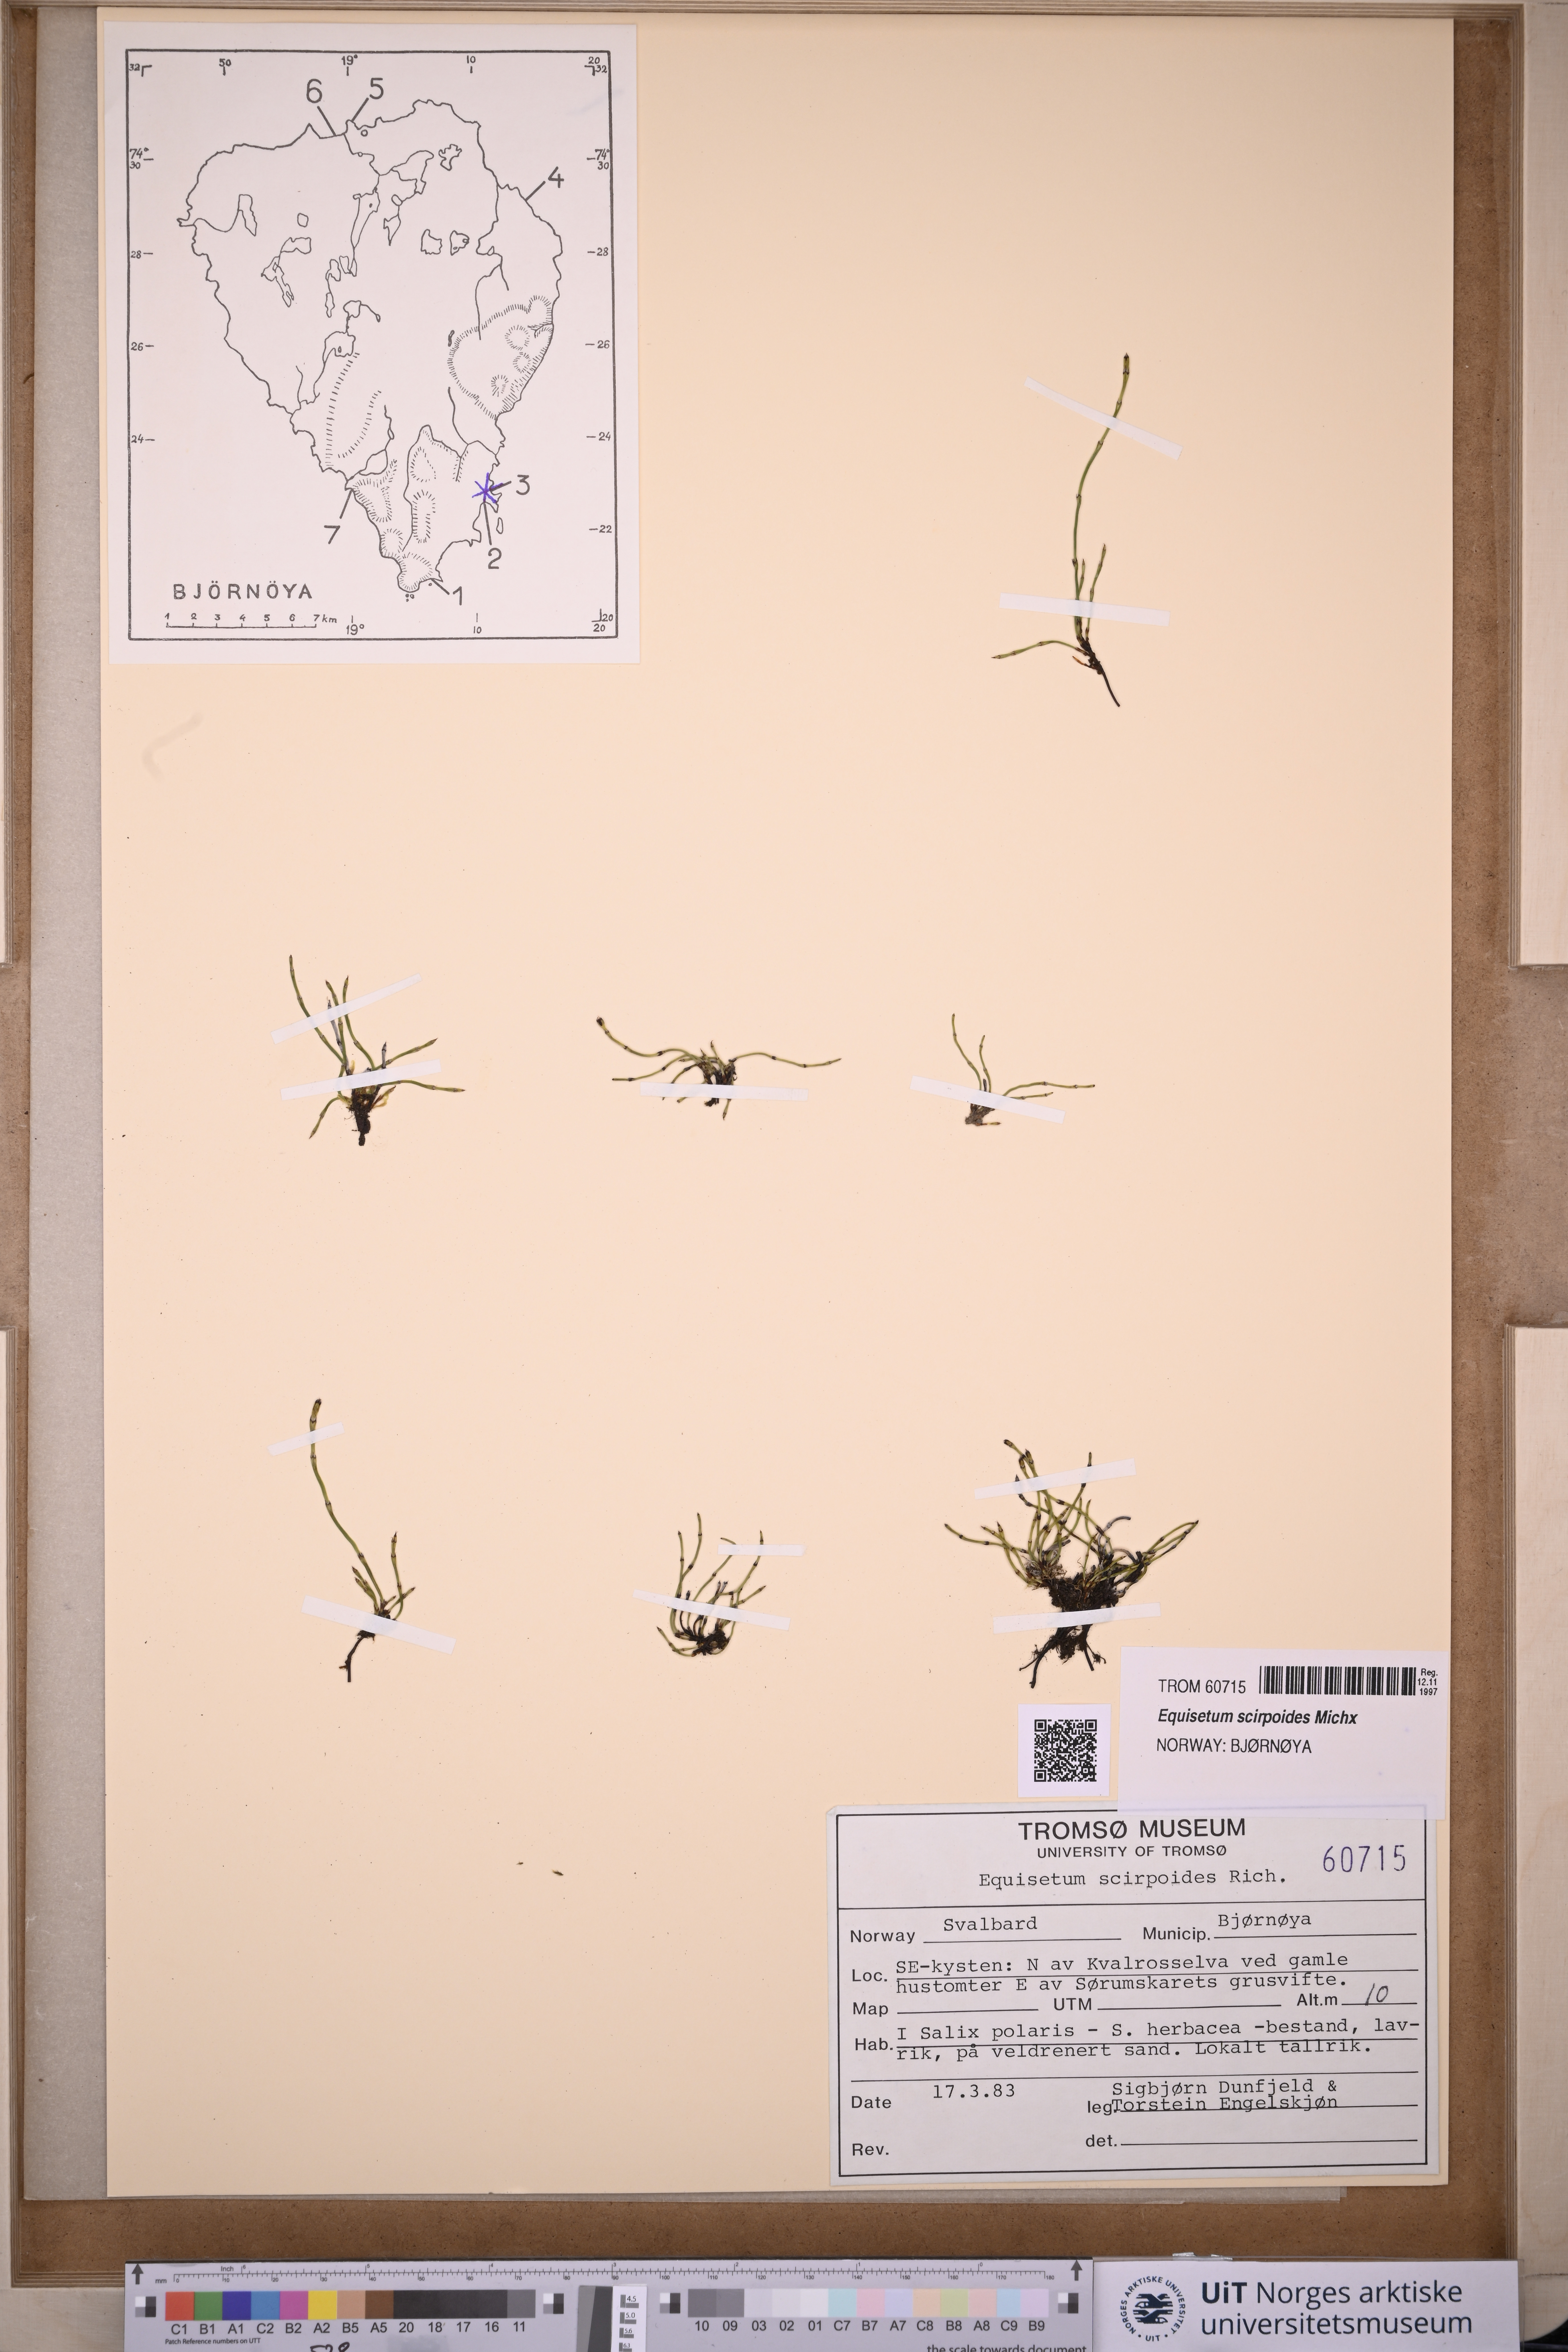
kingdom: Plantae
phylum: Tracheophyta
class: Polypodiopsida
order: Equisetales
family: Equisetaceae
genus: Equisetum
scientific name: Equisetum scirpoides
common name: Delicate horsetail
